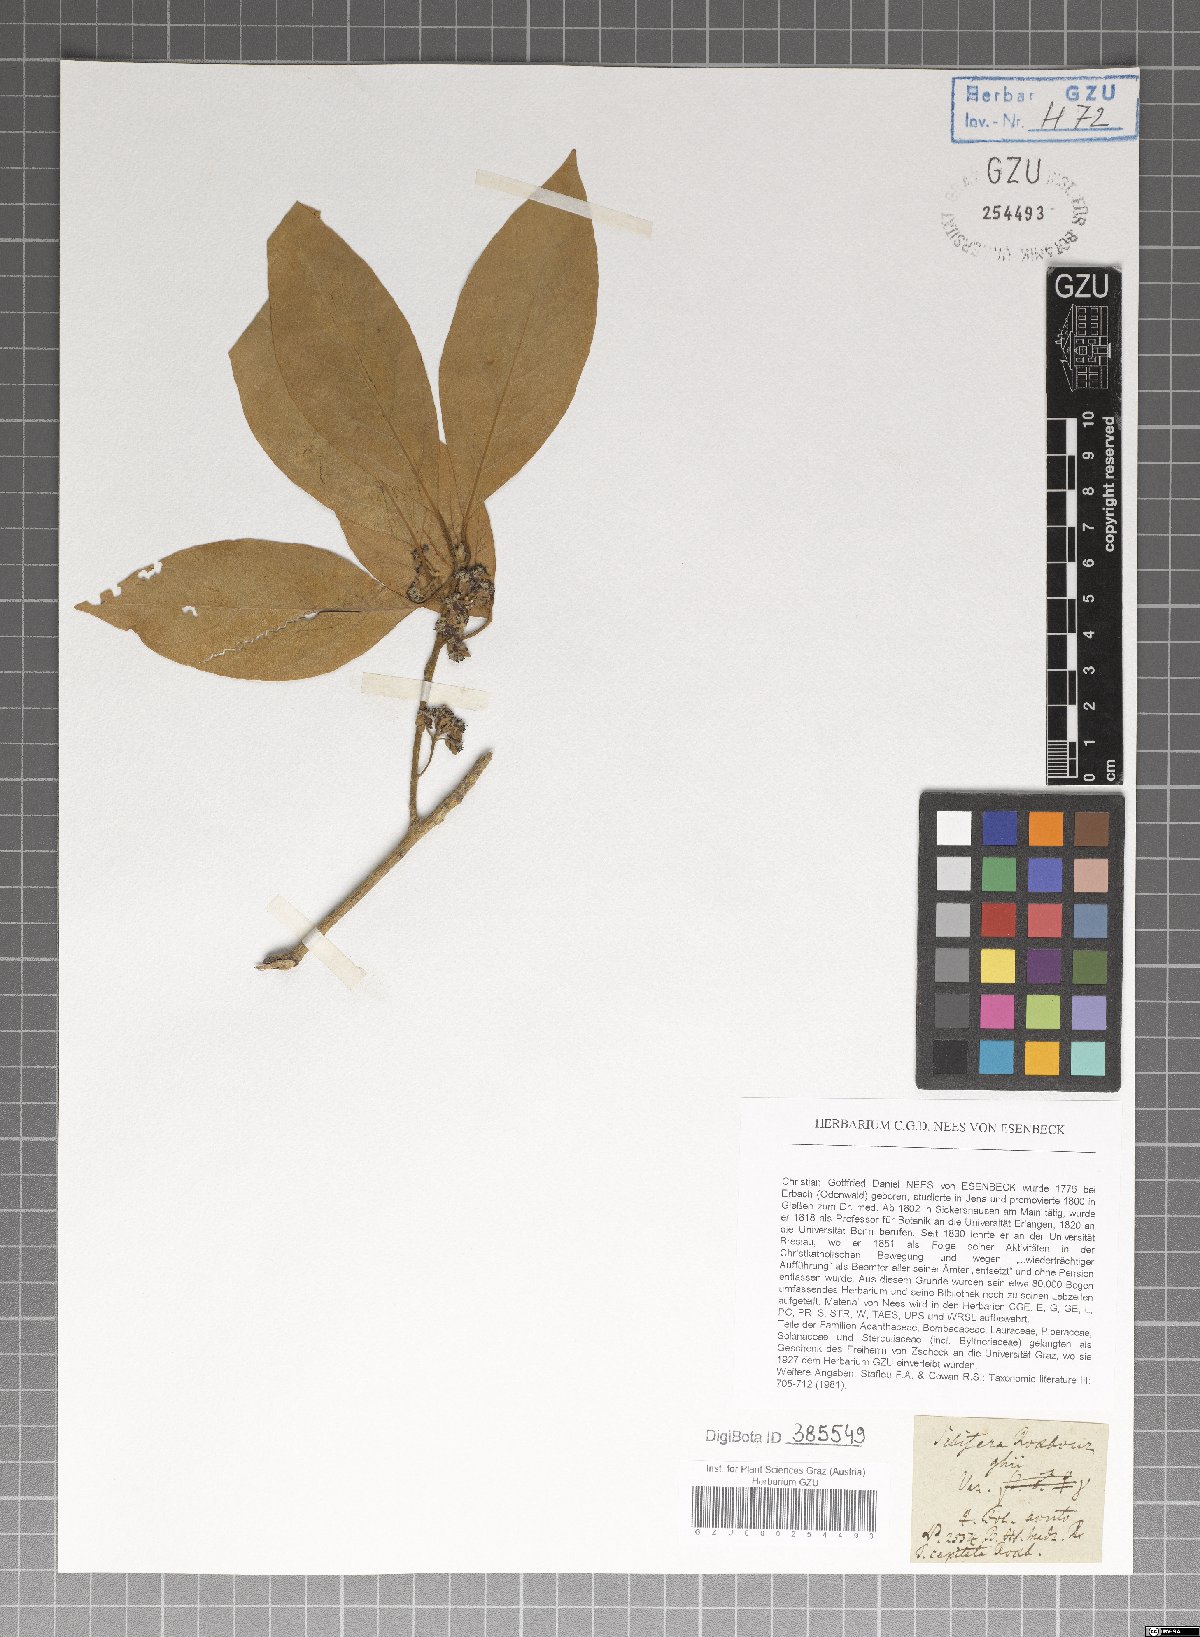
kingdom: Plantae
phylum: Tracheophyta
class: Magnoliopsida
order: Laurales
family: Lauraceae
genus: Litsea
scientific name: Litsea glutinosa
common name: Indian-laurel
